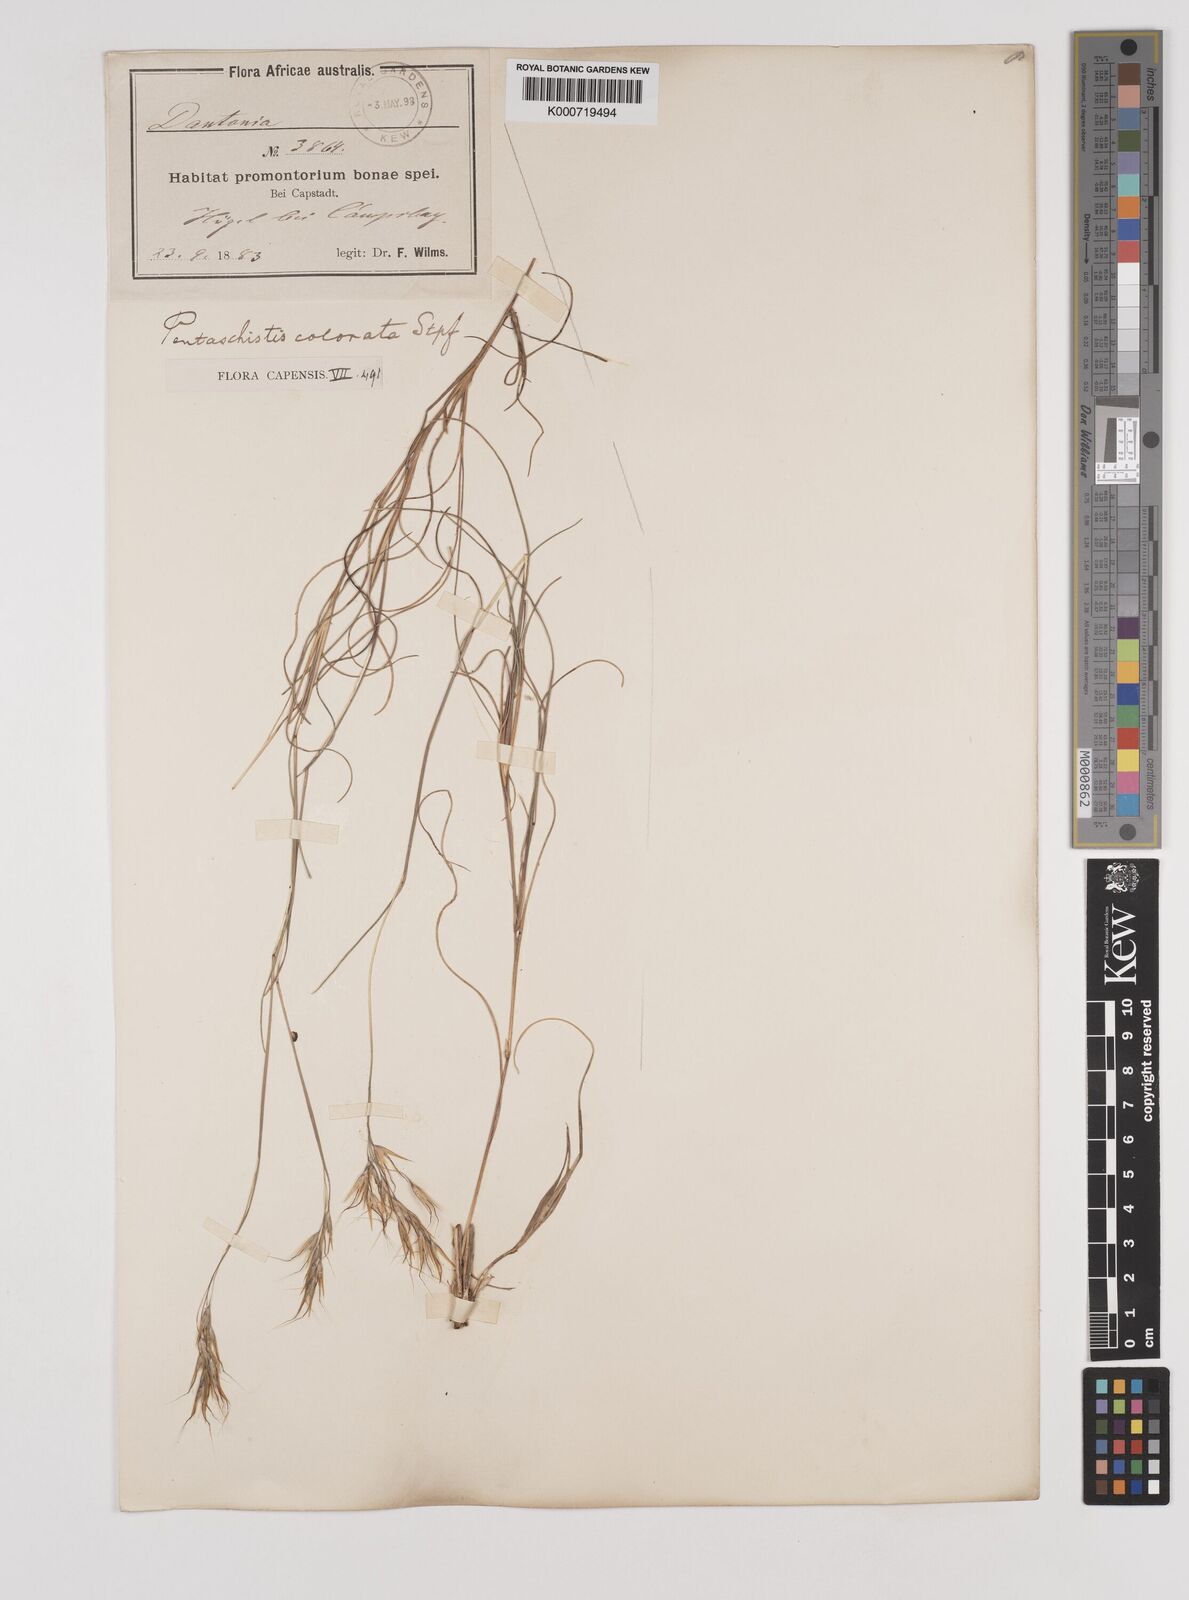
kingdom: Plantae
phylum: Tracheophyta
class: Liliopsida
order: Poales
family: Poaceae
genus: Pentameris
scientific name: Pentameris colorata
